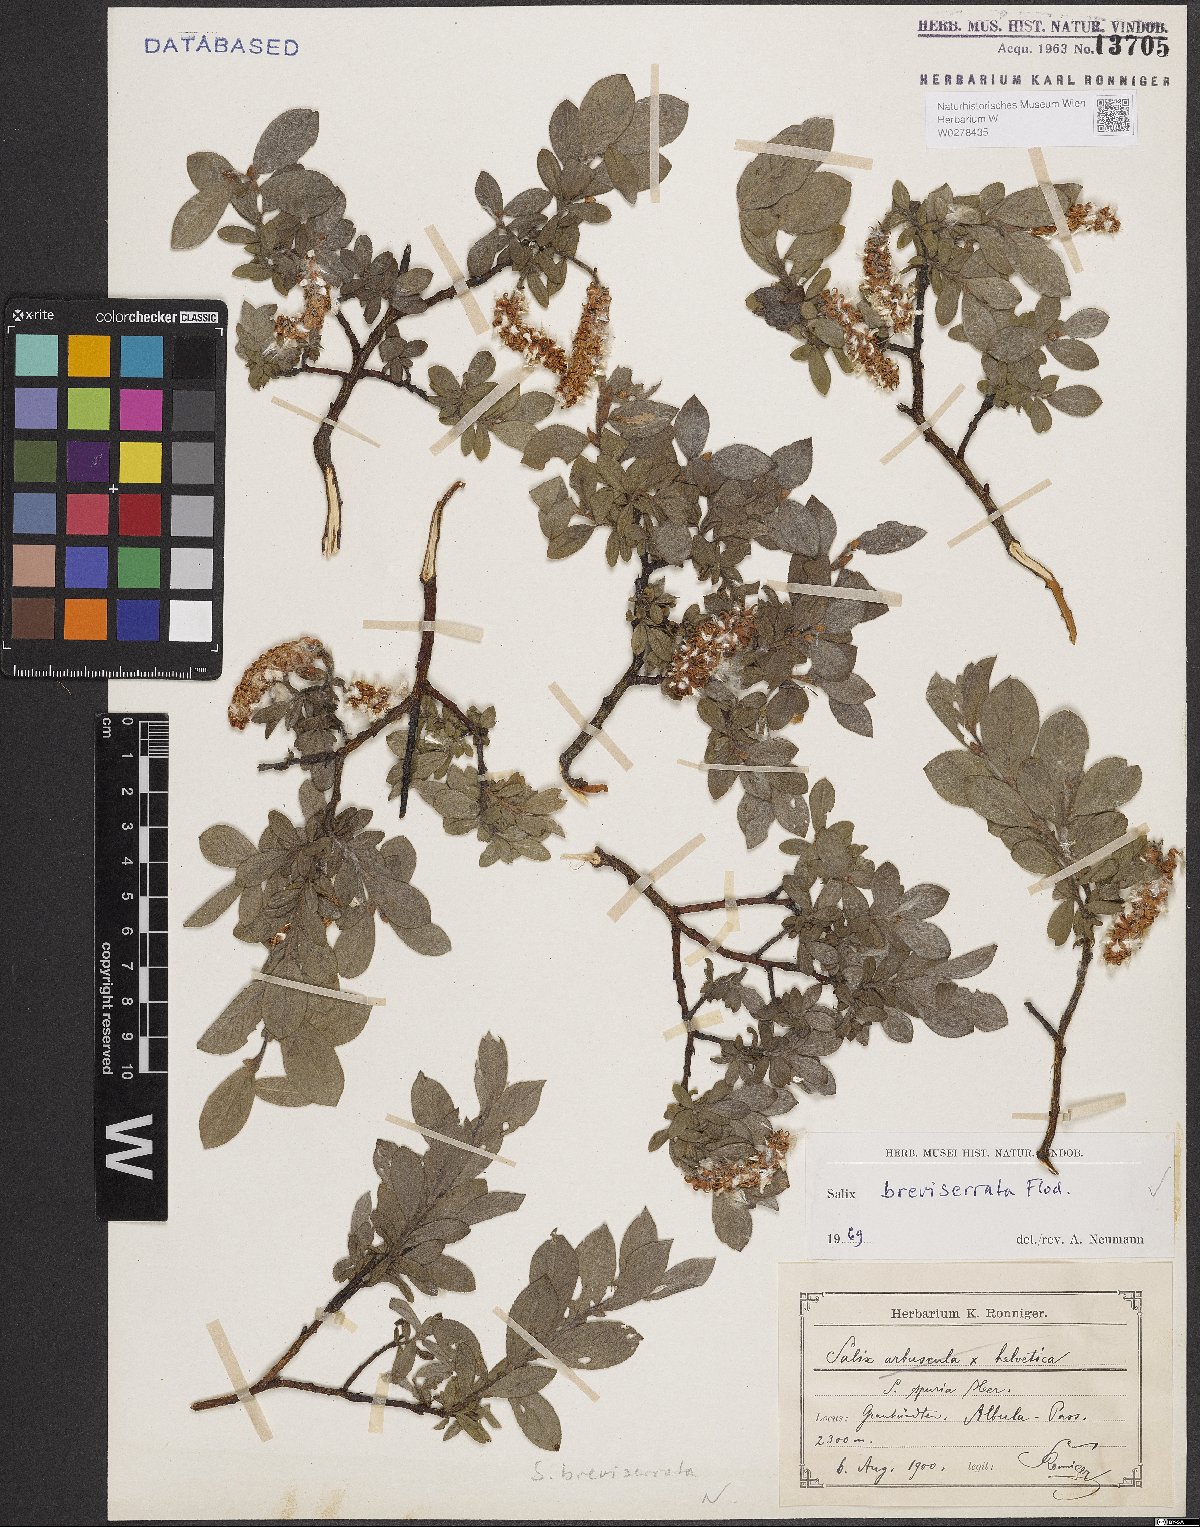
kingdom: Plantae
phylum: Tracheophyta
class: Magnoliopsida
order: Malpighiales
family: Salicaceae
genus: Salix
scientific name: Salix breviserrata
